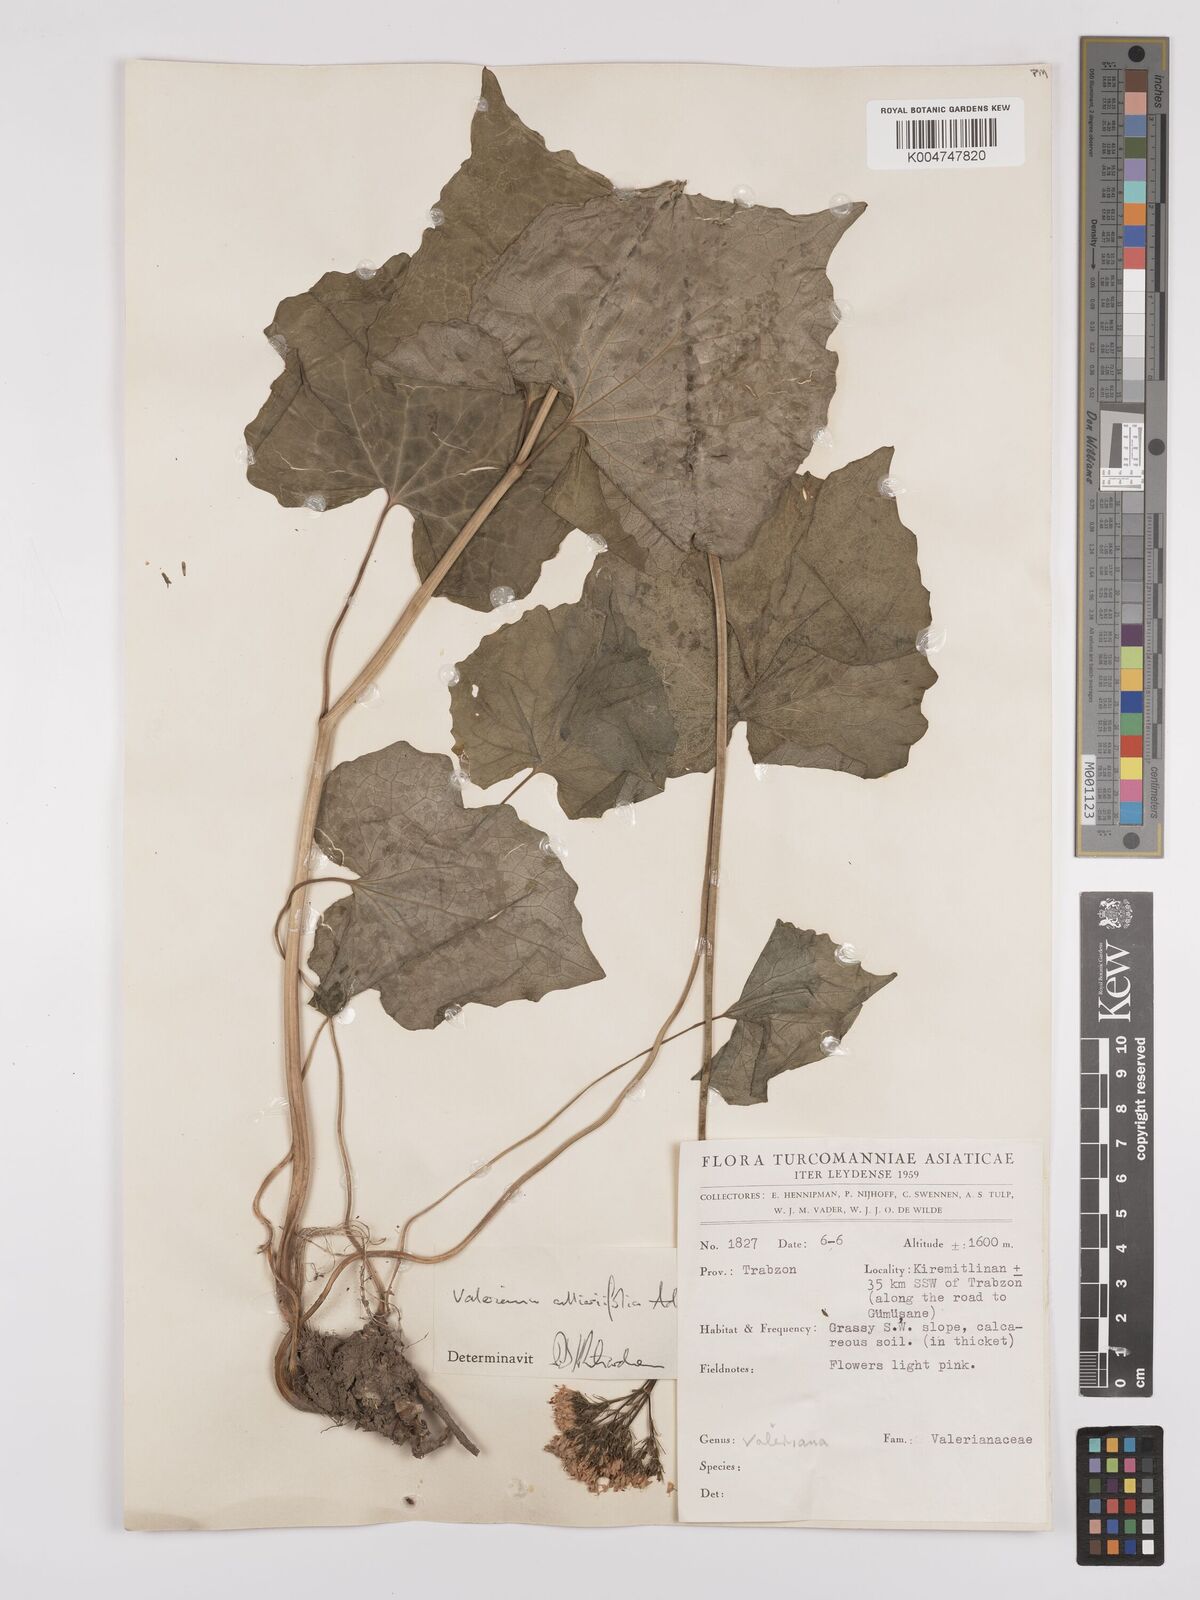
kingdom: Plantae
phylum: Tracheophyta
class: Magnoliopsida
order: Dipsacales
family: Caprifoliaceae
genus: Valeriana
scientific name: Valeriana
